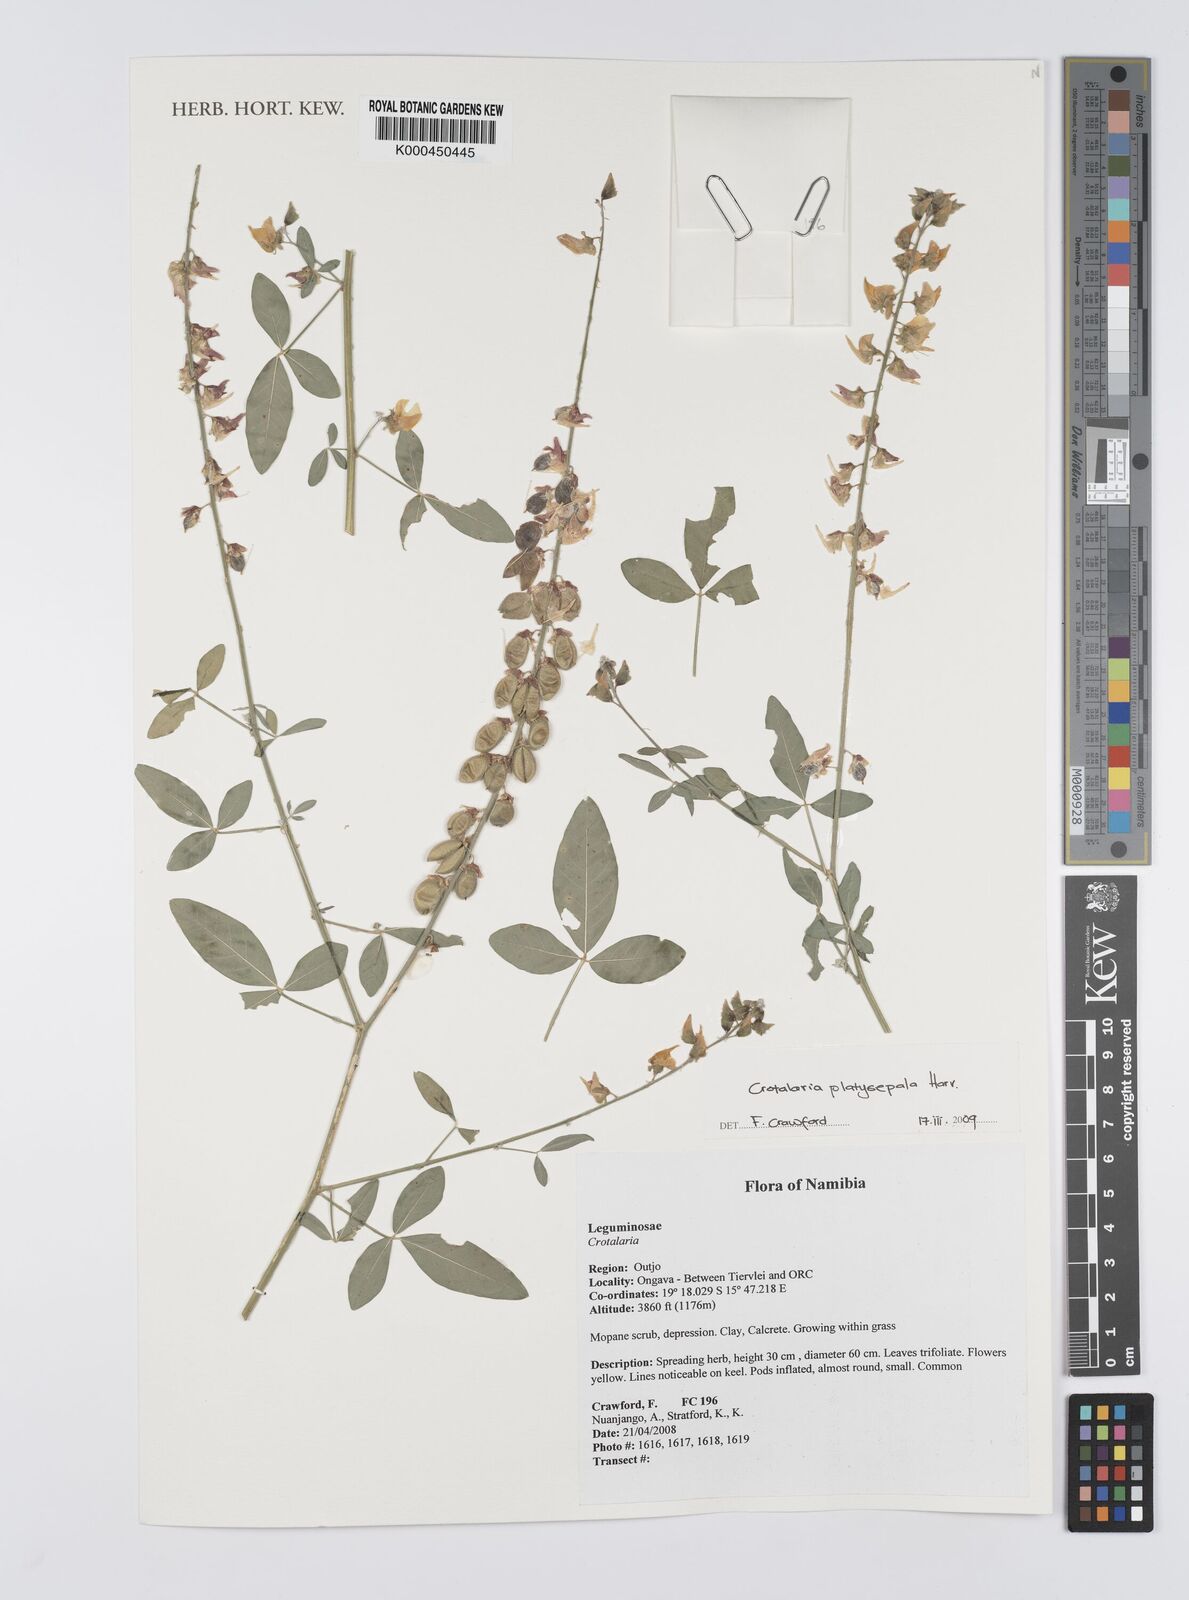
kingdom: Plantae
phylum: Tracheophyta
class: Magnoliopsida
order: Fabales
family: Fabaceae
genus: Crotalaria
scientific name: Crotalaria platysepala
